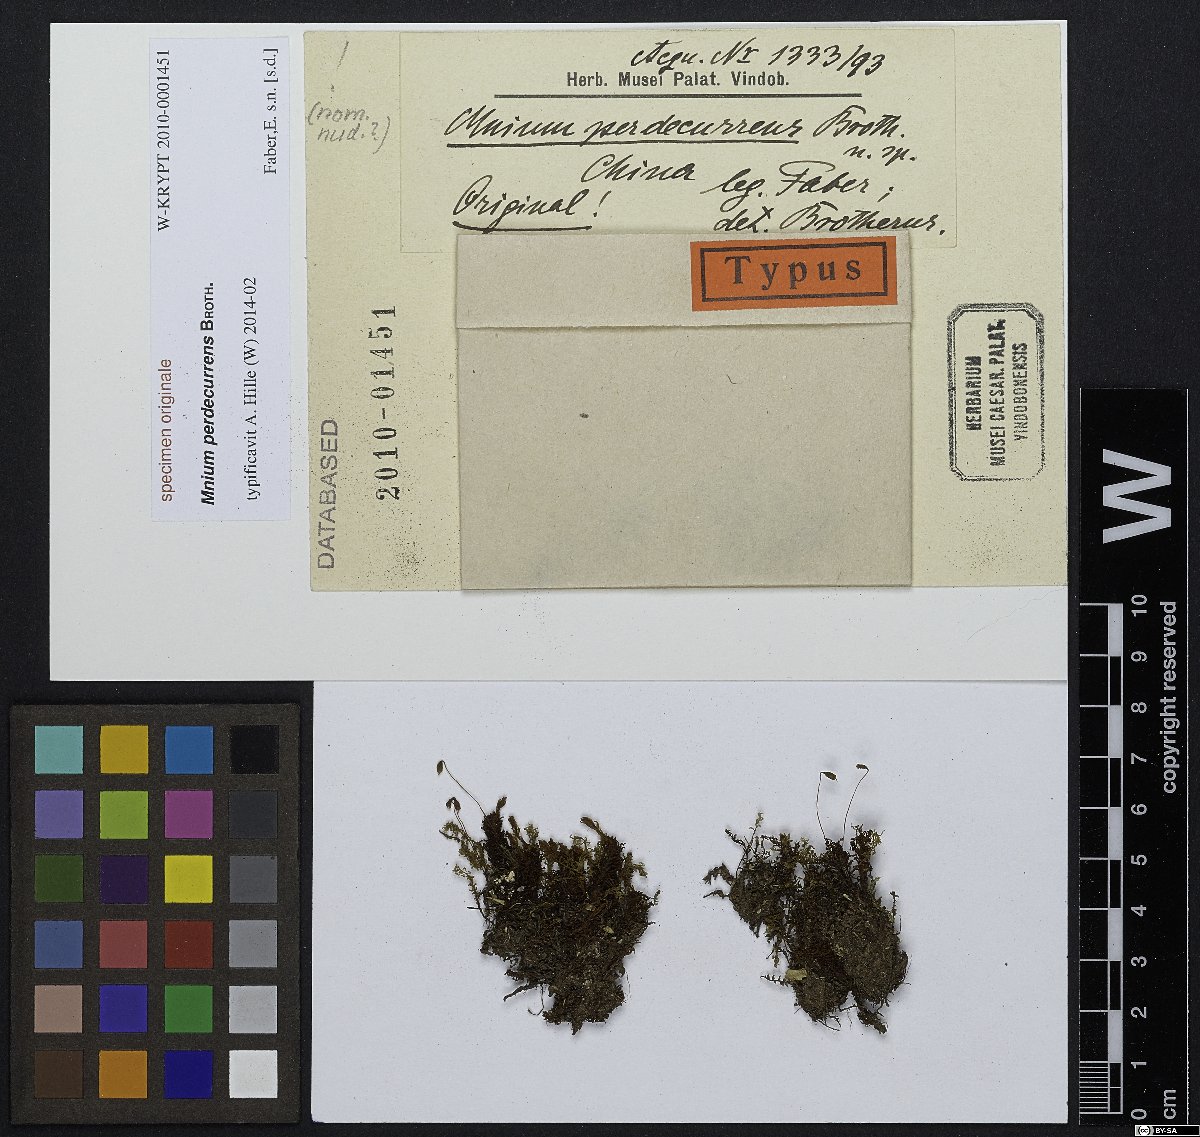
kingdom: Plantae
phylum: Bryophyta
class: Bryopsida
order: Bryales
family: Mniaceae
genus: Mnium
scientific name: Mnium
